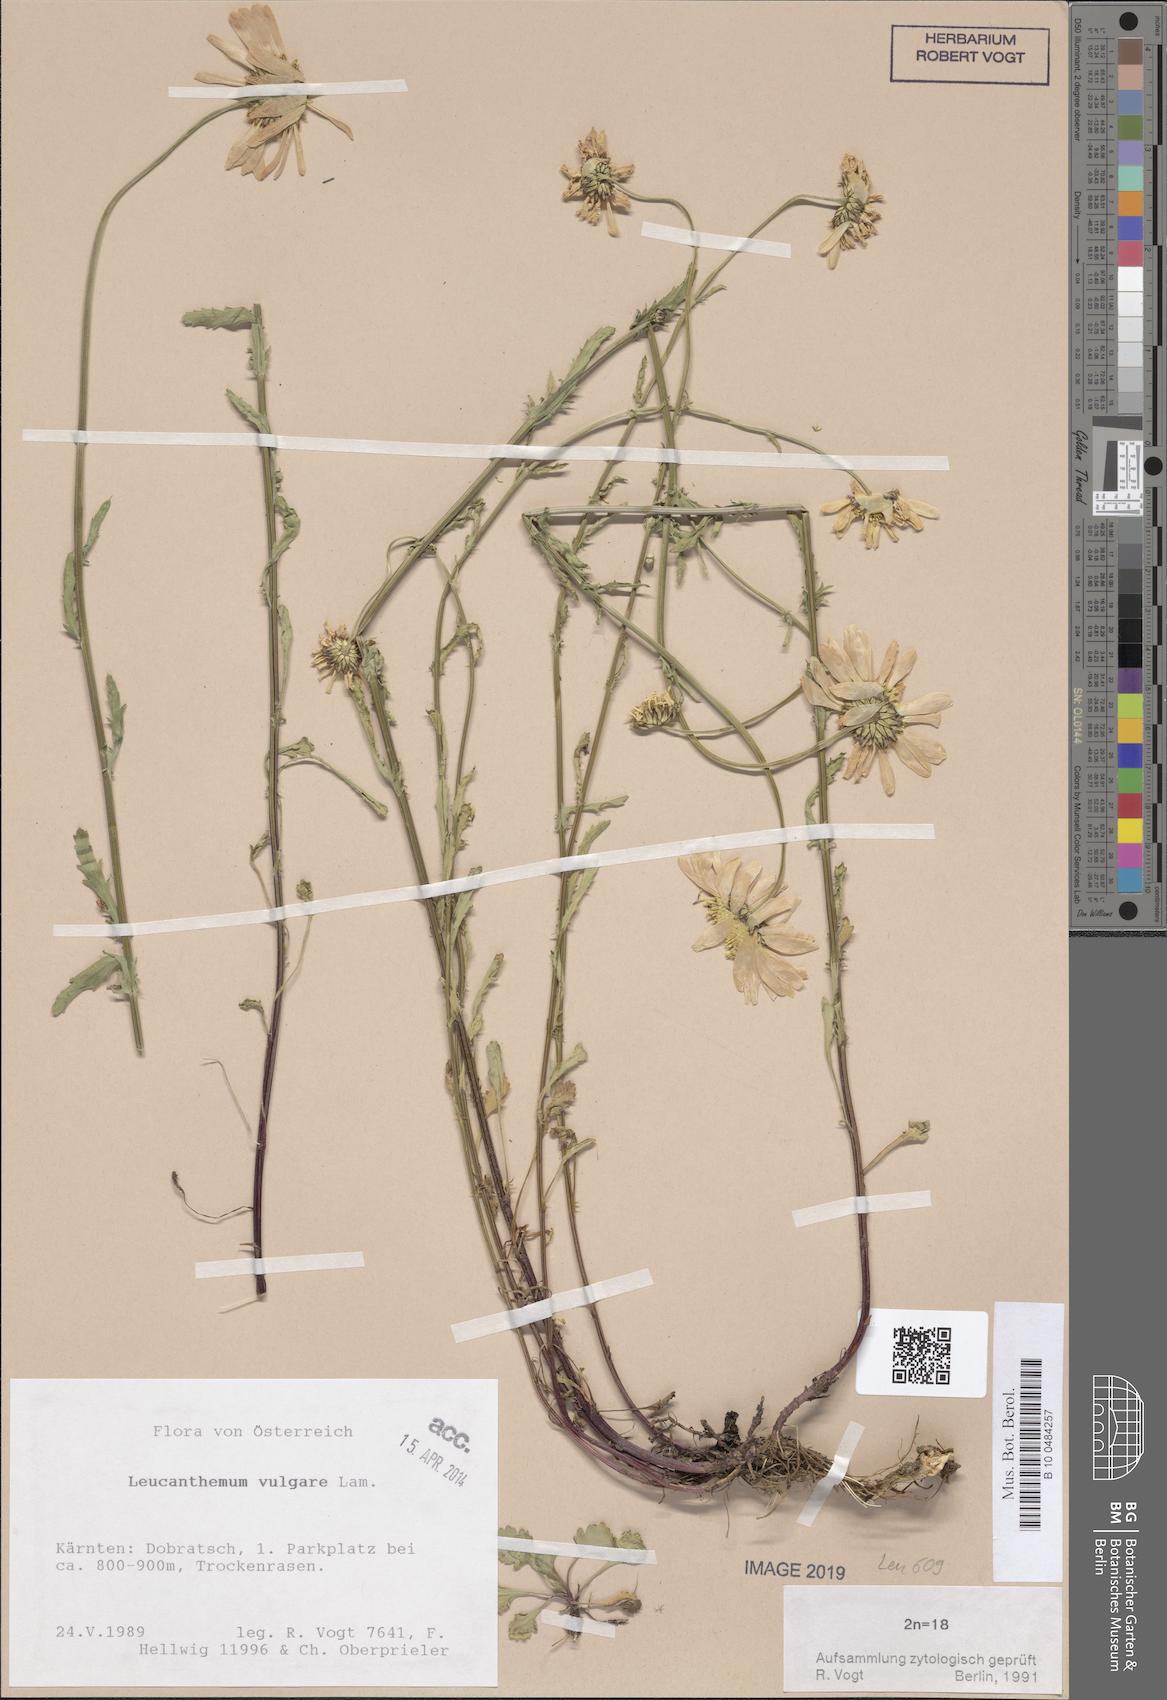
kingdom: Plantae
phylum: Tracheophyta
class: Magnoliopsida
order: Asterales
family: Asteraceae
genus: Leucanthemum
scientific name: Leucanthemum vulgare
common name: Oxeye daisy
